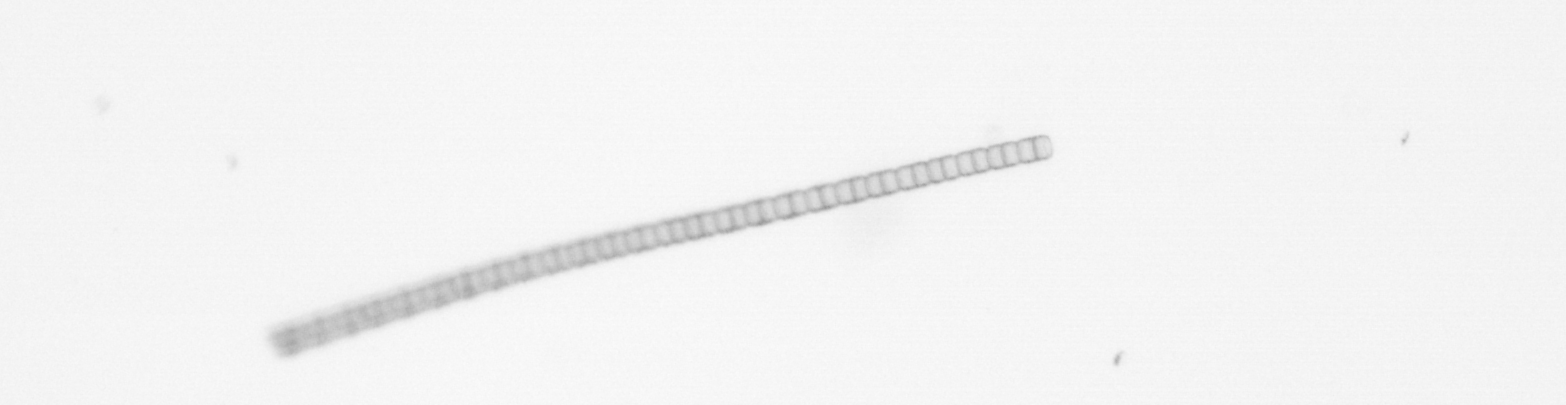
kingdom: Chromista
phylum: Ochrophyta
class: Bacillariophyceae
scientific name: Bacillariophyceae
